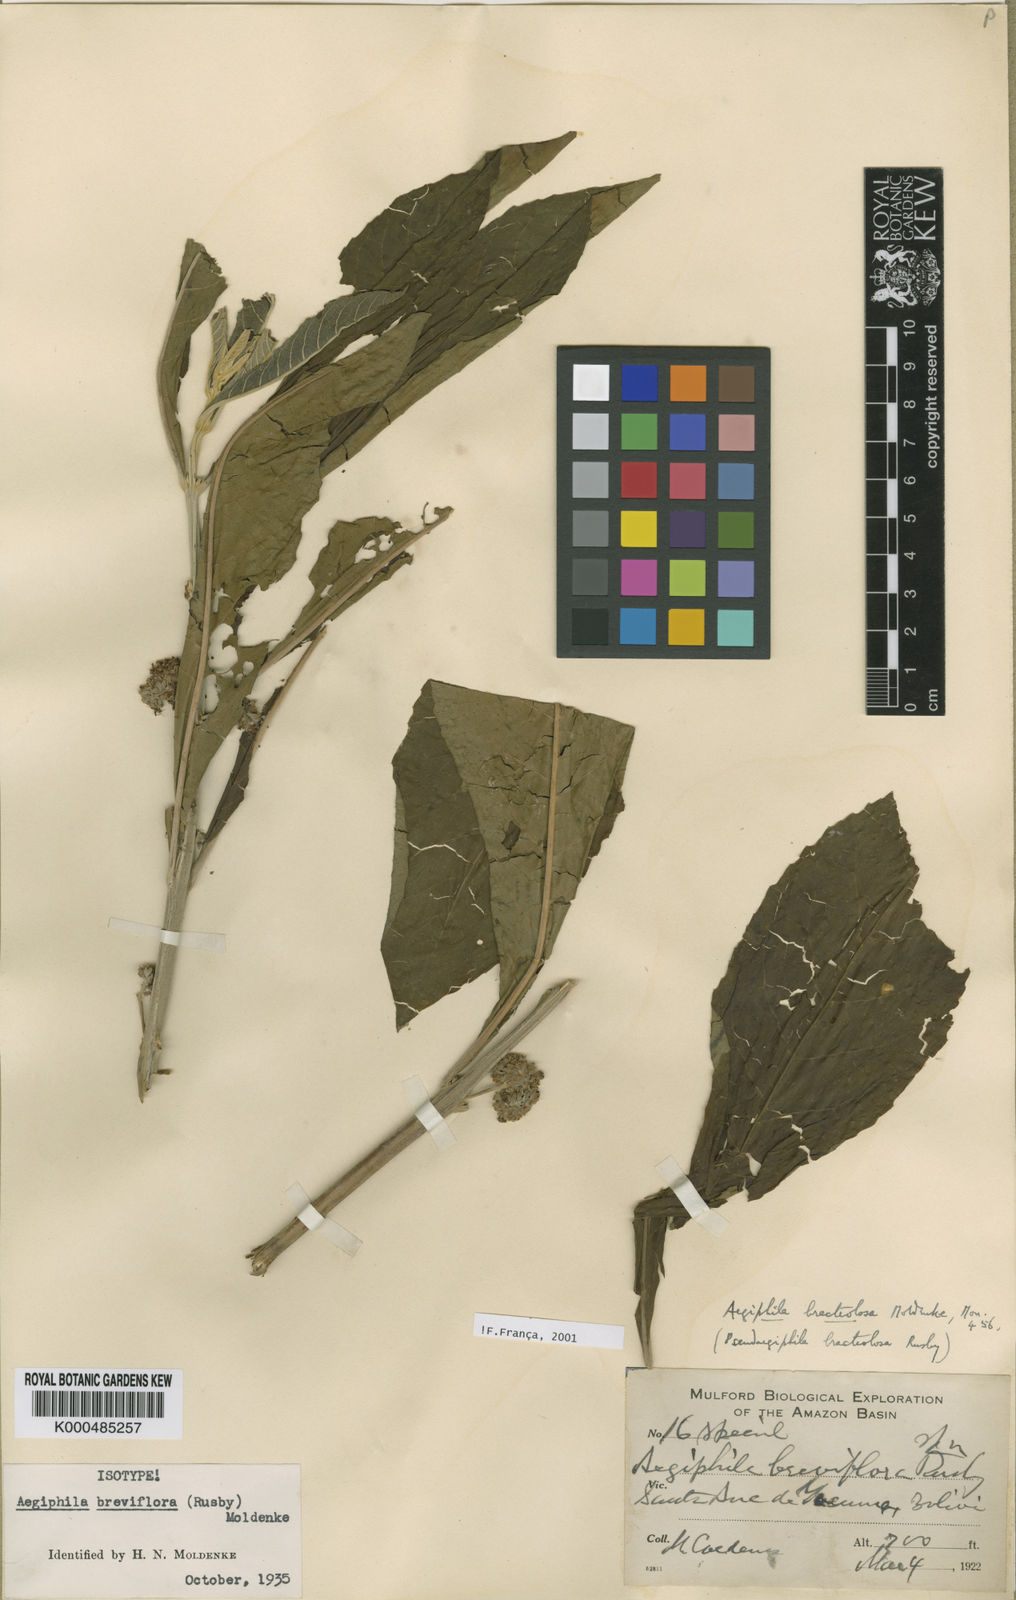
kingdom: Plantae
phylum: Tracheophyta
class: Magnoliopsida
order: Lamiales
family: Lamiaceae
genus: Aegiphila
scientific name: Aegiphila boliviana
